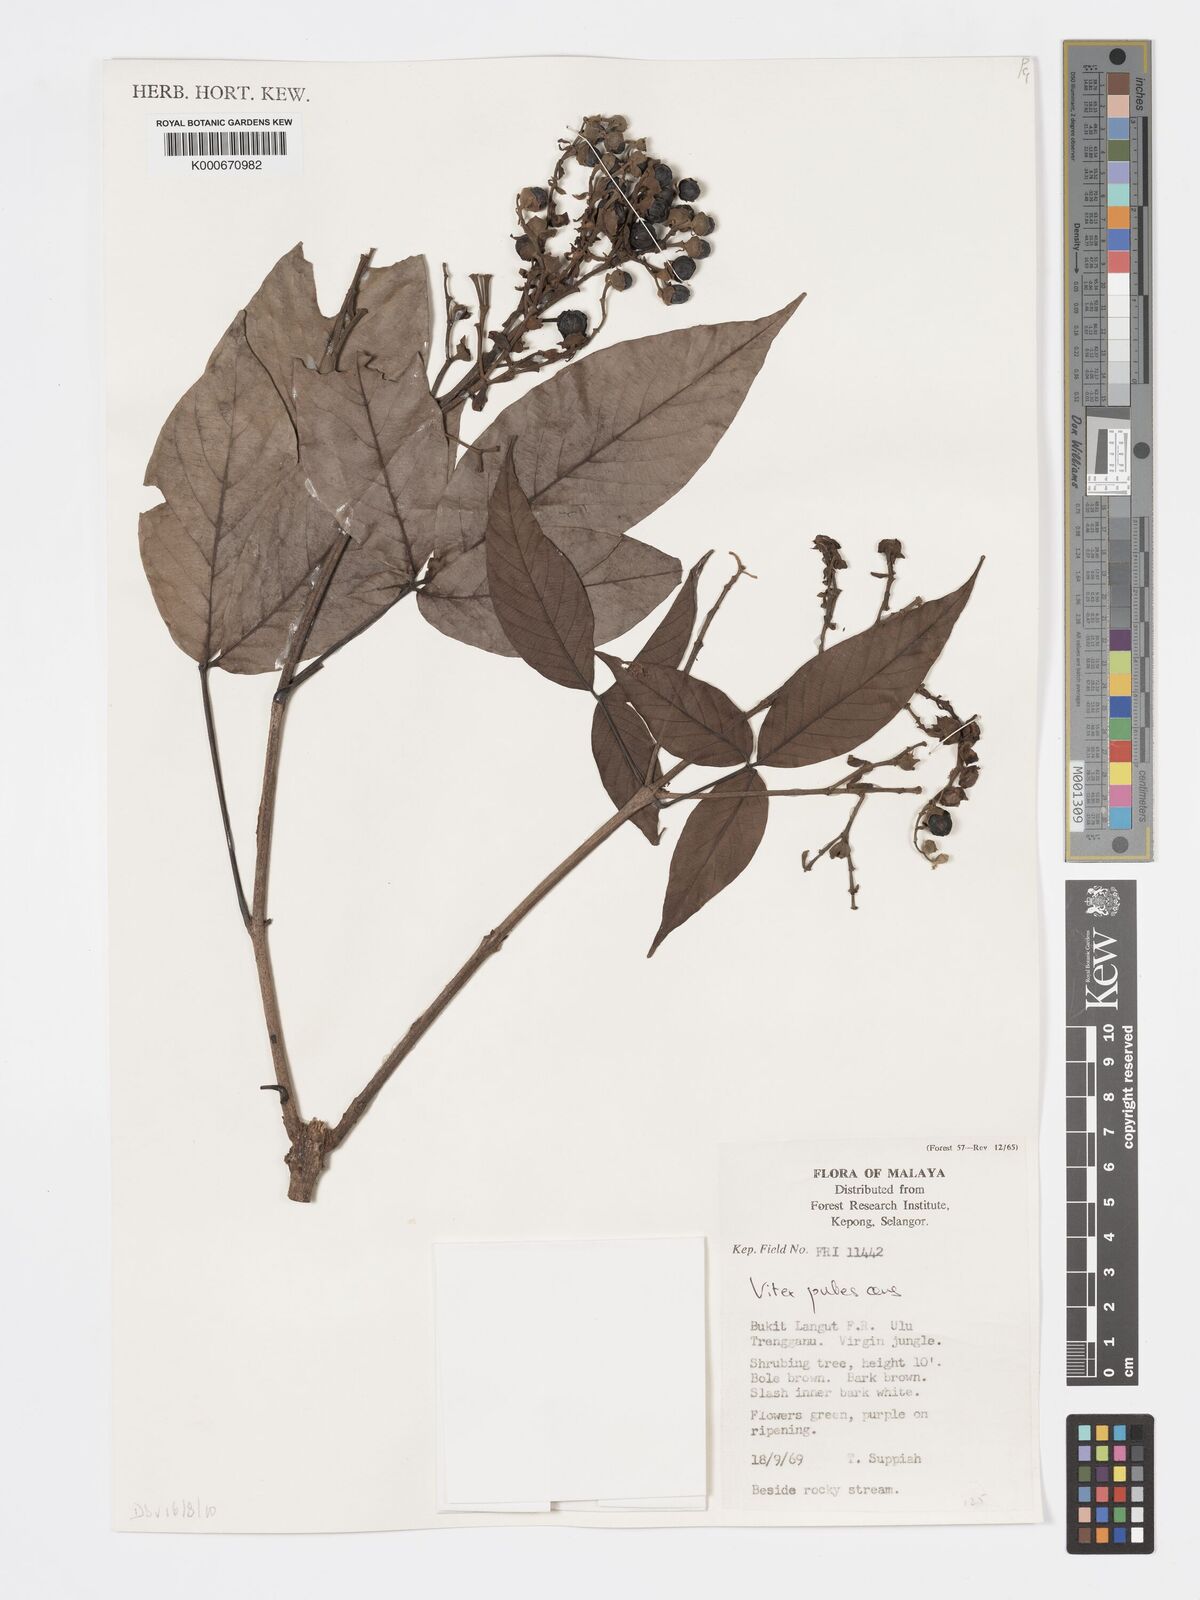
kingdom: Plantae
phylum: Tracheophyta
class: Magnoliopsida
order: Lamiales
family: Lamiaceae
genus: Vitex
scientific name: Vitex pinnata
